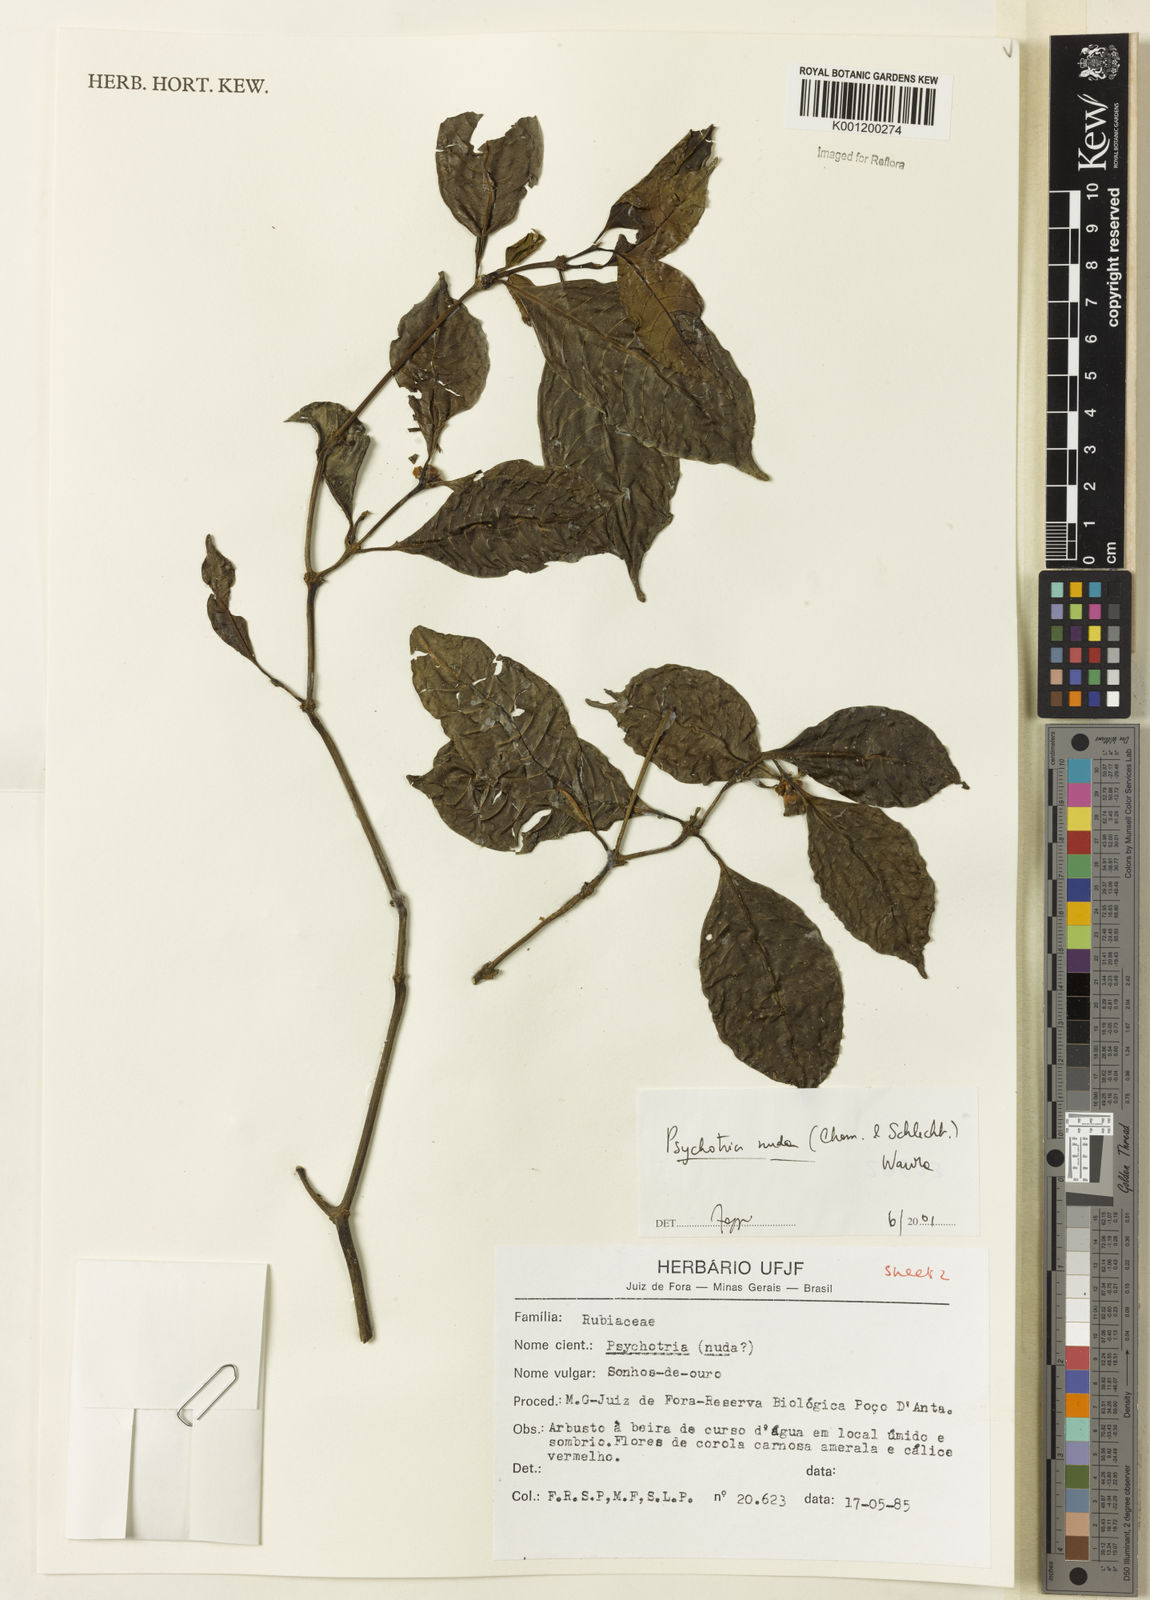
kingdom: Plantae
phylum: Tracheophyta
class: Magnoliopsida
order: Gentianales
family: Rubiaceae
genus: Psychotria
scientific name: Psychotria nuda
